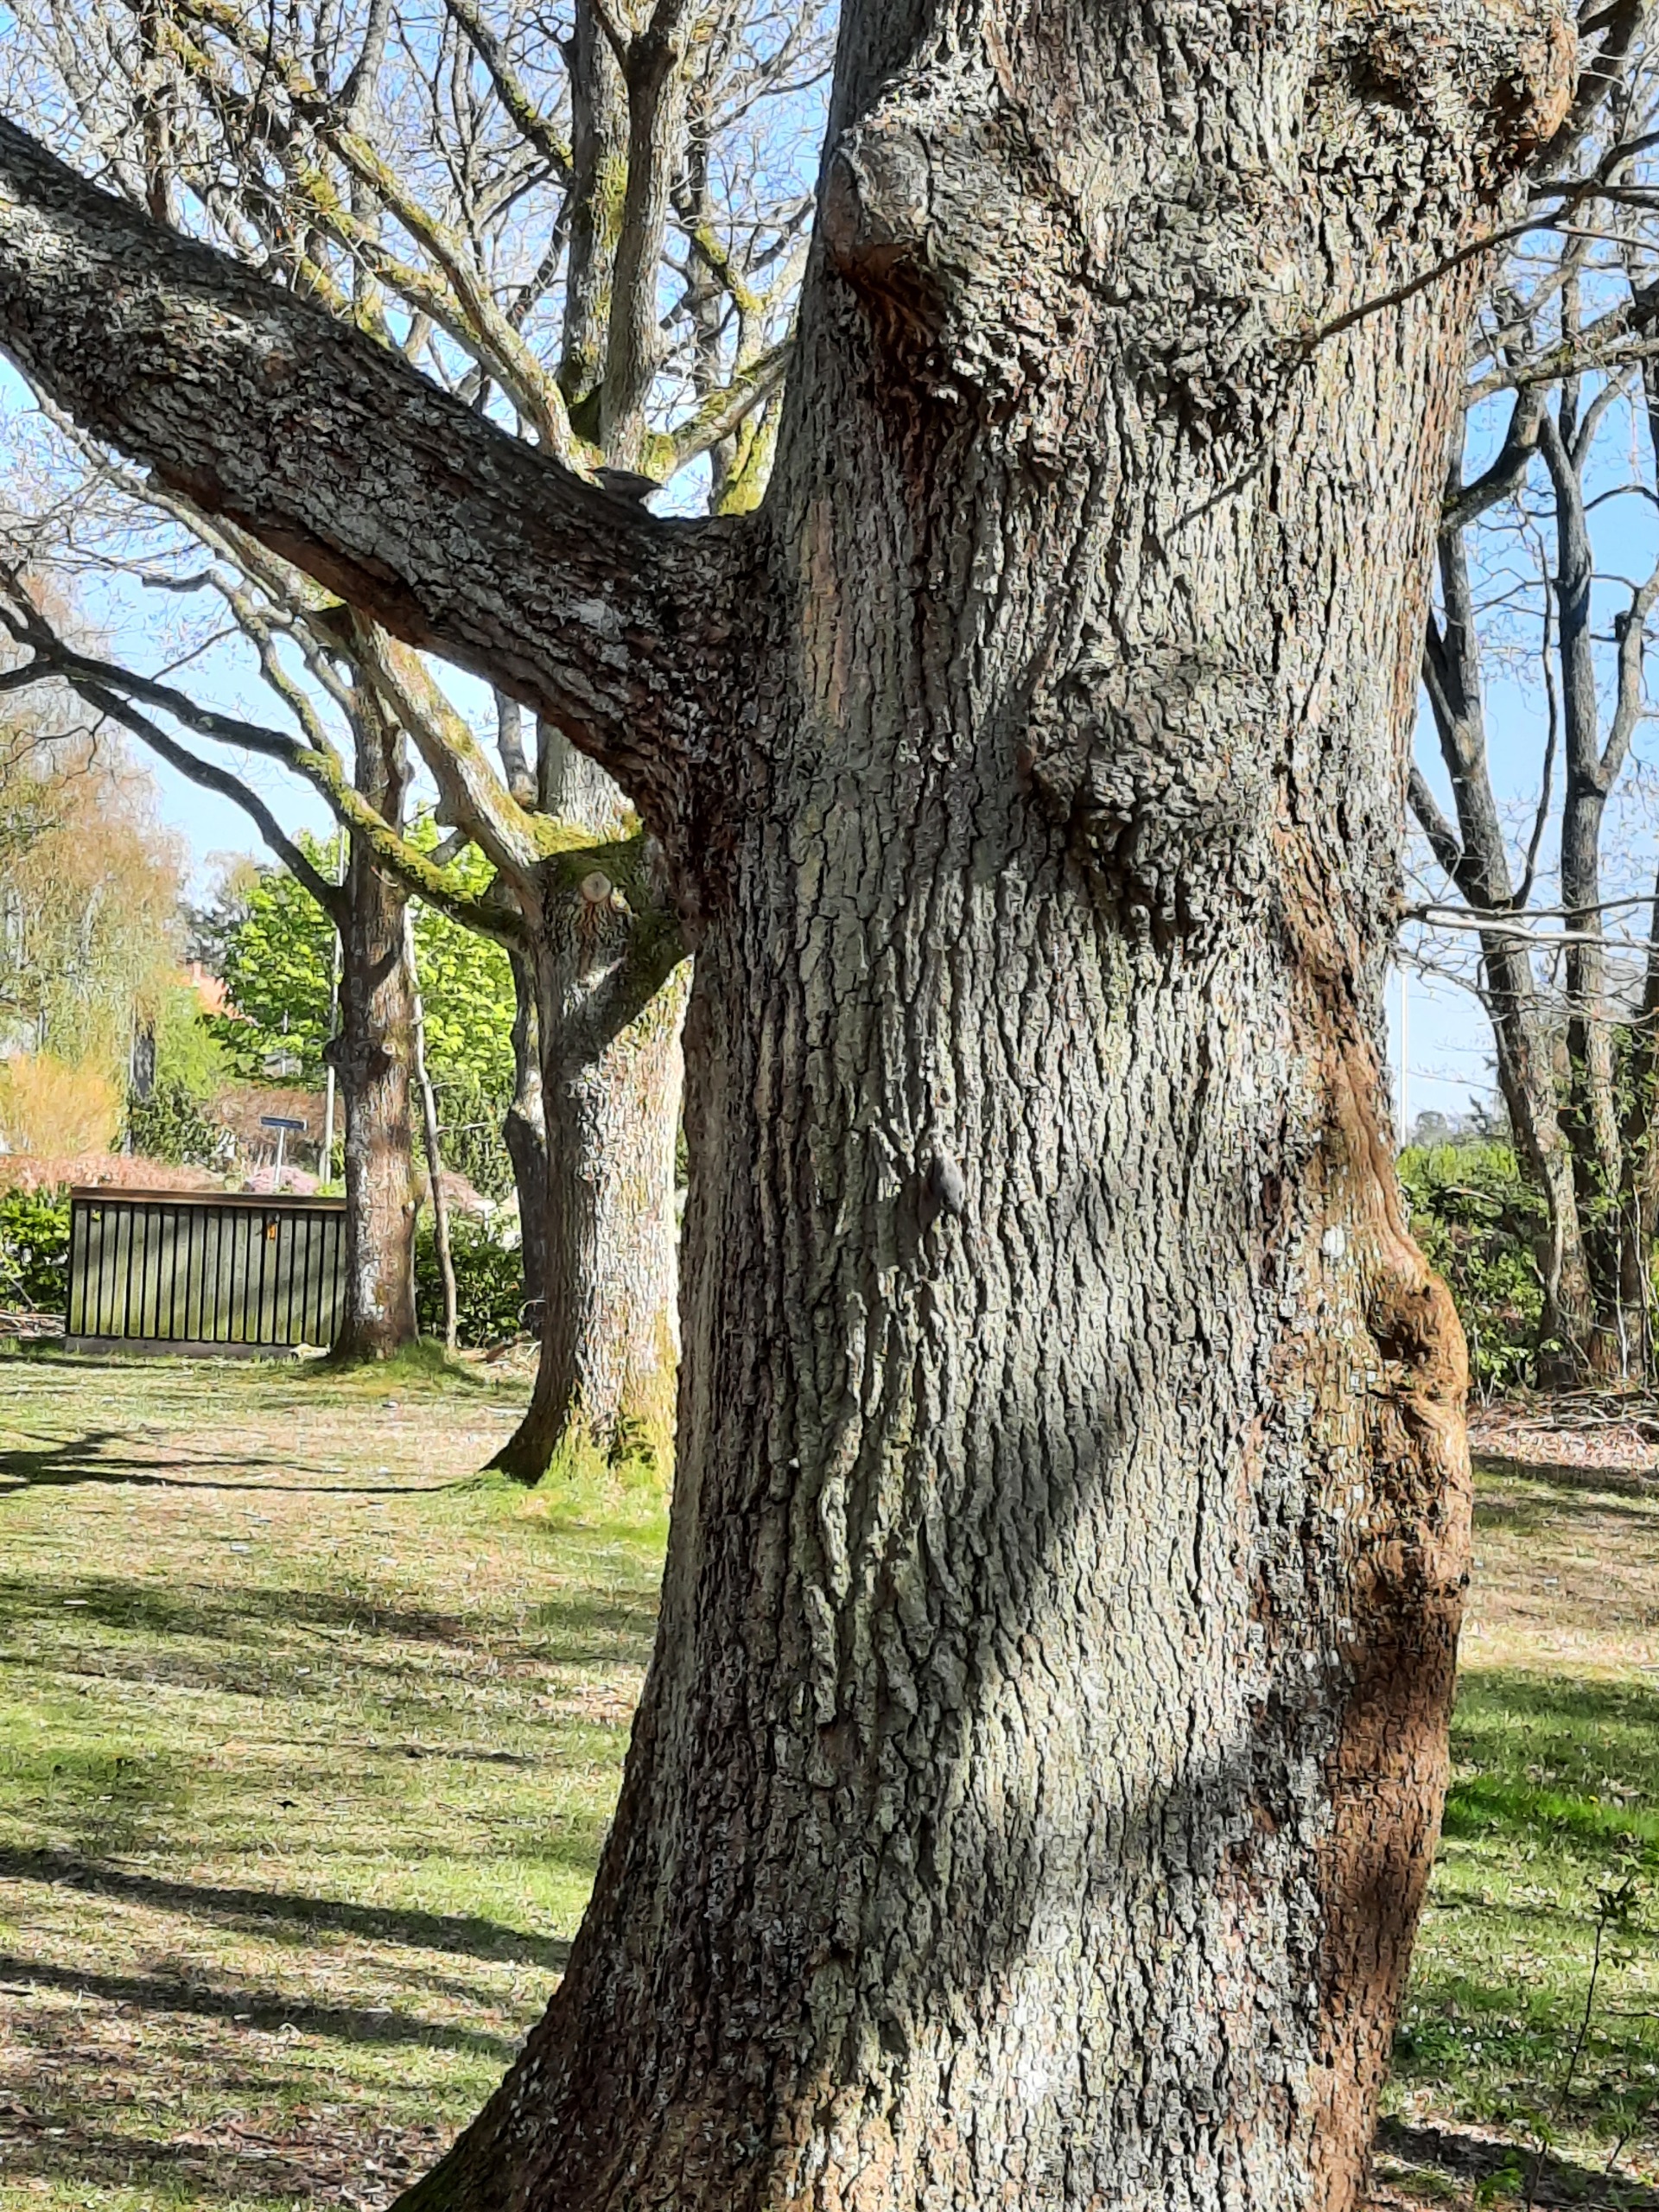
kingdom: Animalia
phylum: Chordata
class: Aves
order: Passeriformes
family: Sittidae
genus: Sitta
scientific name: Sitta europaea
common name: Spætmejse
